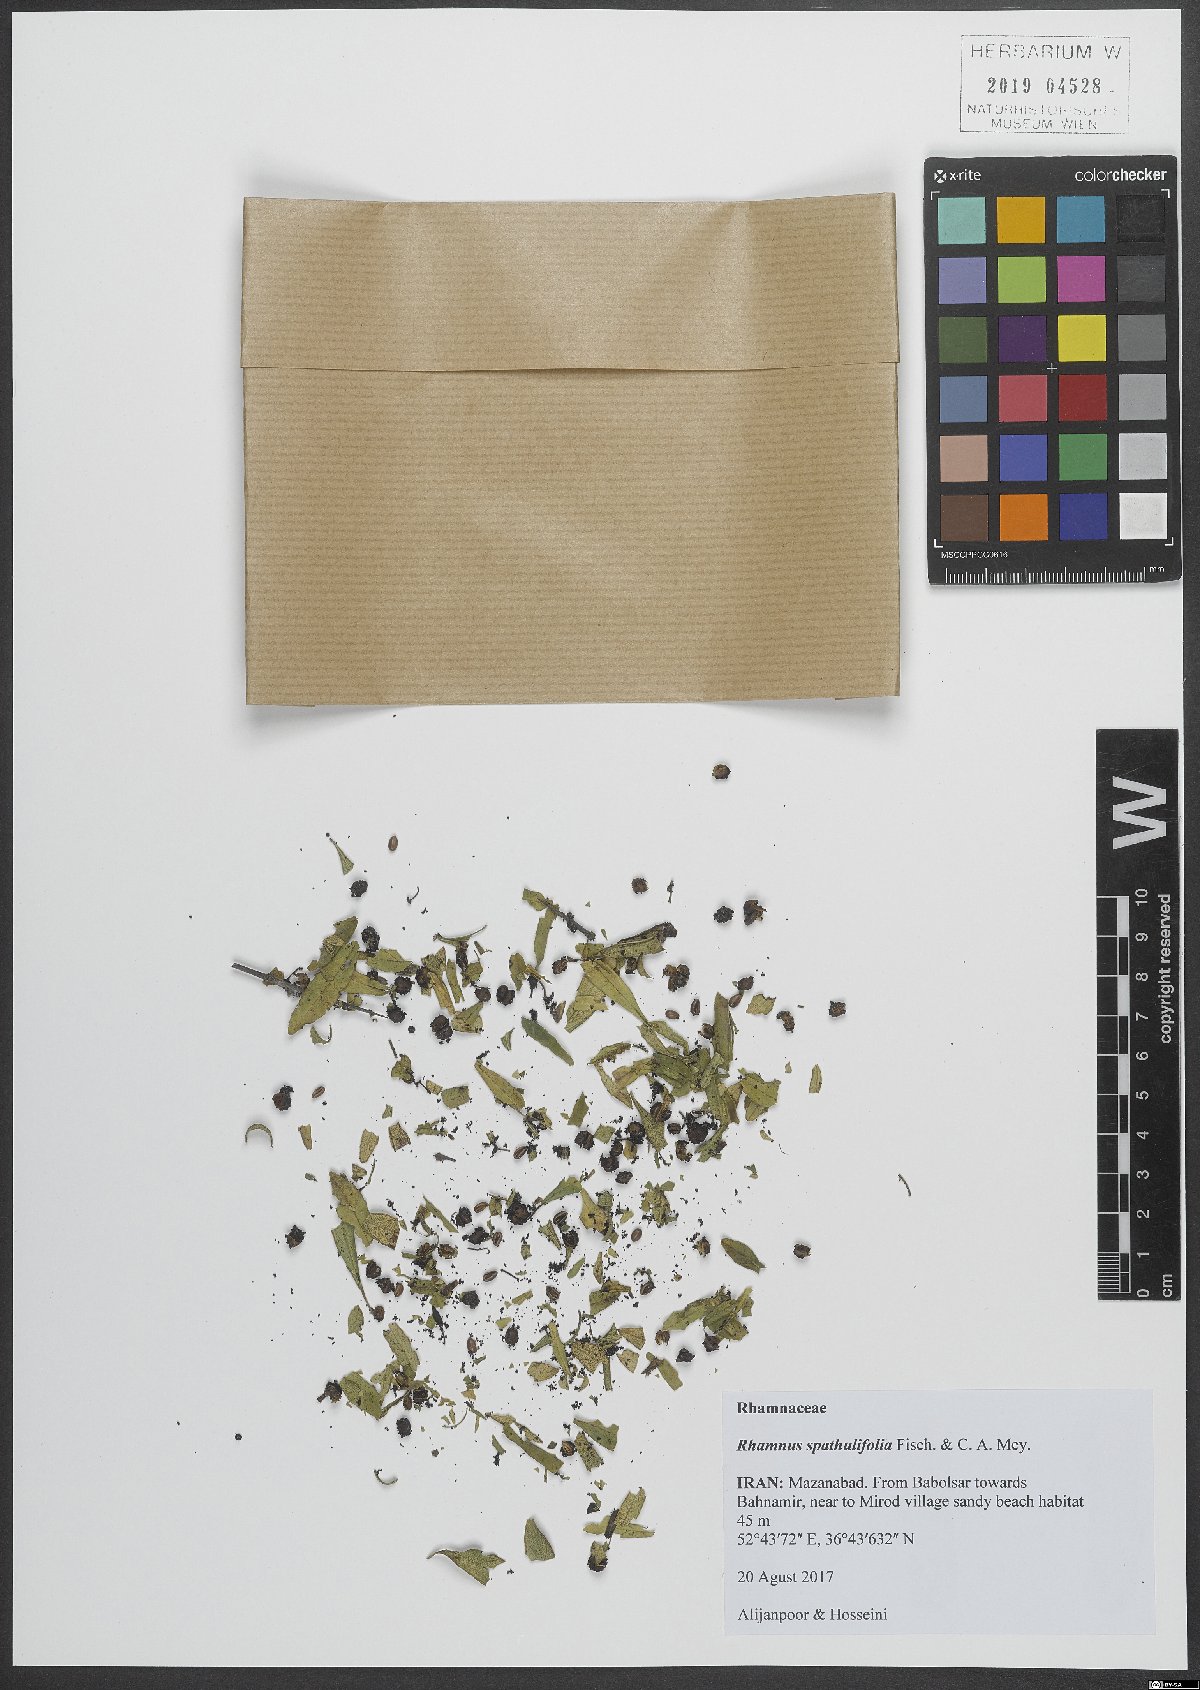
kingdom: Plantae
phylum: Tracheophyta
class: Magnoliopsida
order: Rosales
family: Rhamnaceae
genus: Rhamnus
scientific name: Rhamnus spathulifolia
